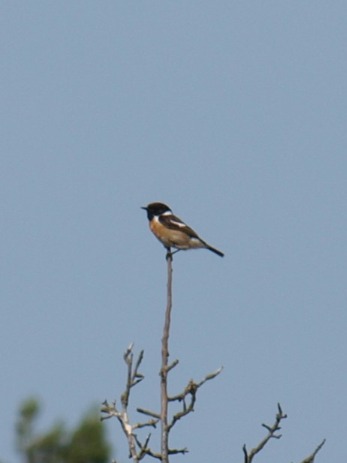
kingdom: Animalia
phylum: Chordata
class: Aves
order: Passeriformes
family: Muscicapidae
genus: Saxicola
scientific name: Saxicola rubicola
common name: Sortstrubet bynkefugl
